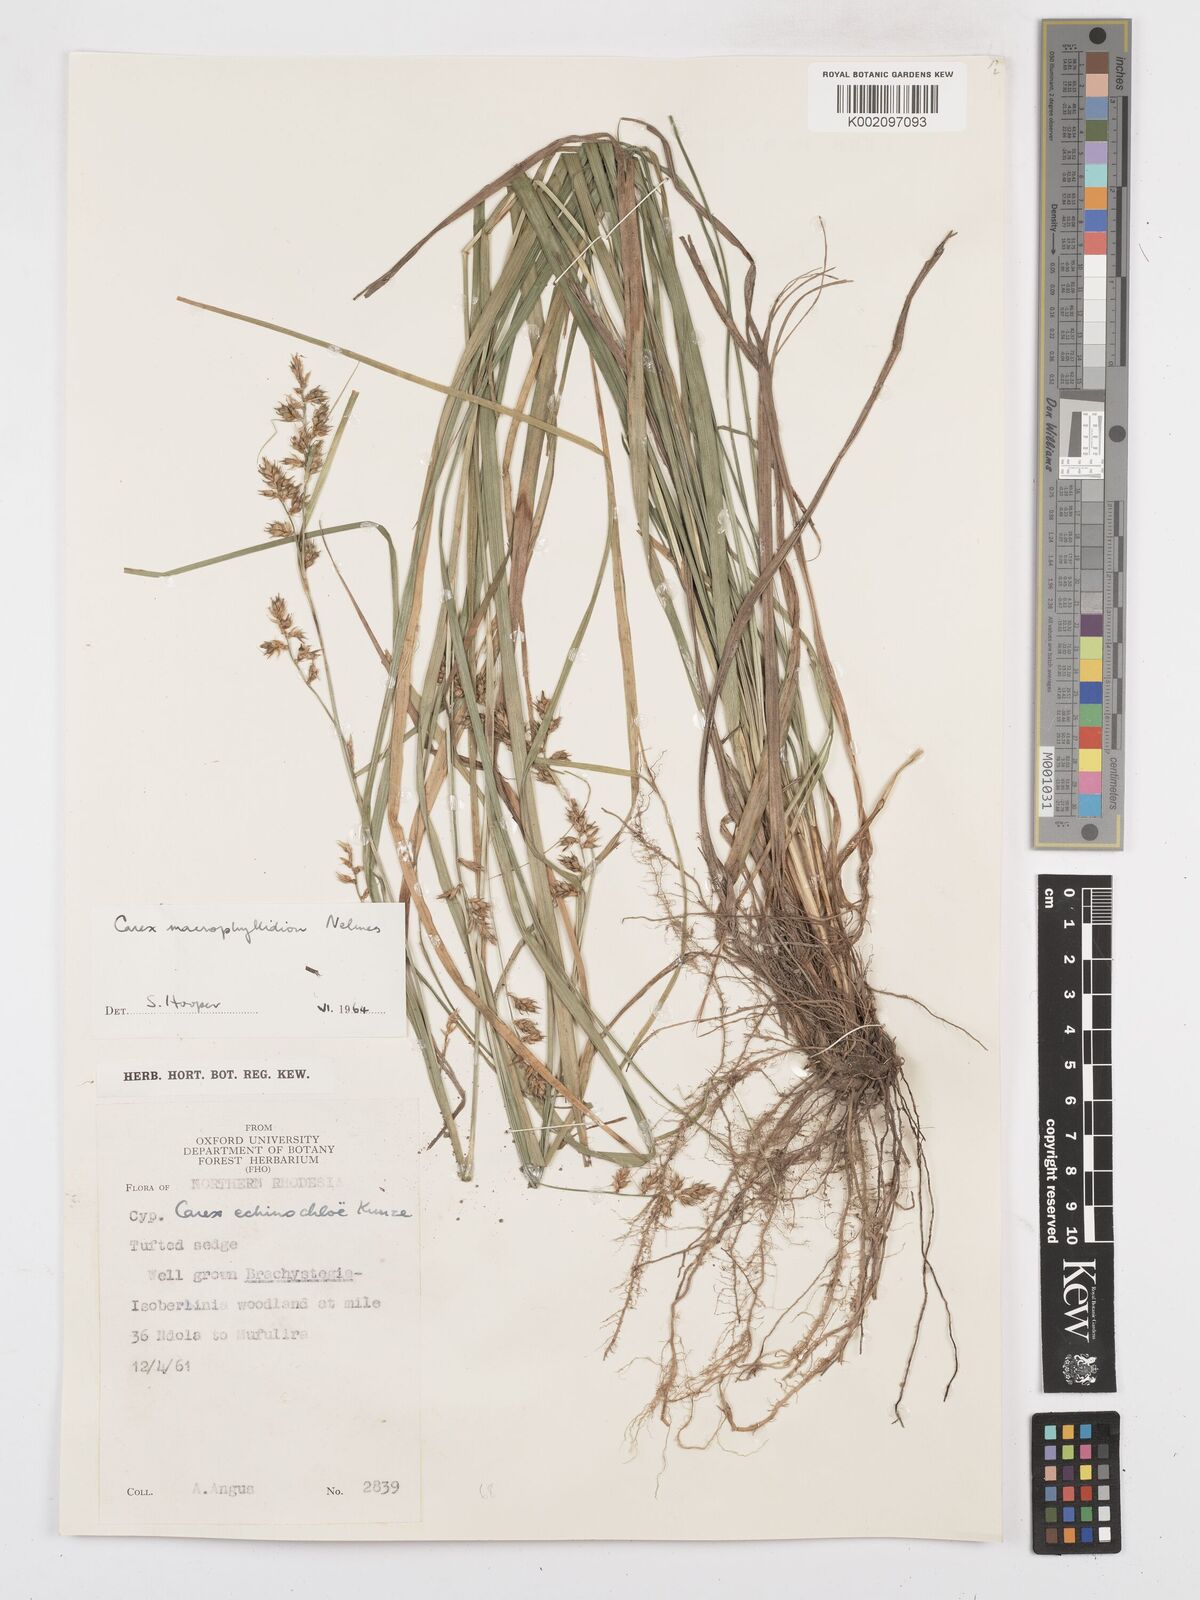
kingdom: Plantae
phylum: Tracheophyta
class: Liliopsida
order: Poales
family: Cyperaceae
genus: Carex
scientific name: Carex macrophyllidion
